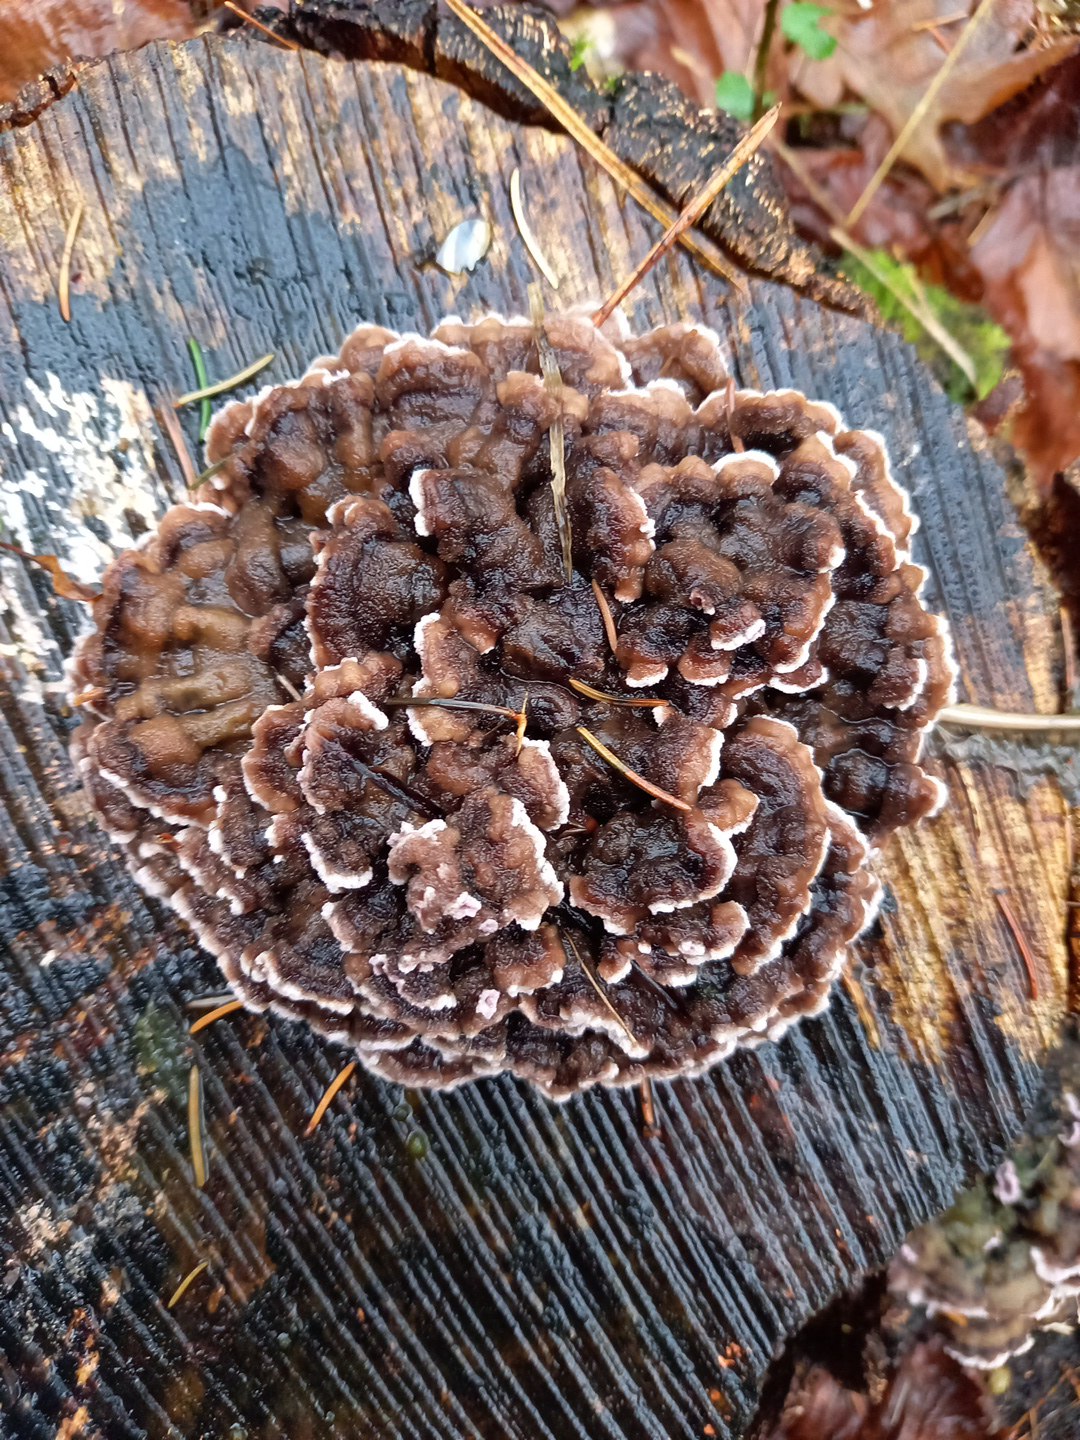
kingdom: Fungi
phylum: Basidiomycota
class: Agaricomycetes
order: Polyporales
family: Polyporaceae
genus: Trametes
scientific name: Trametes versicolor
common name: broget læderporesvamp
